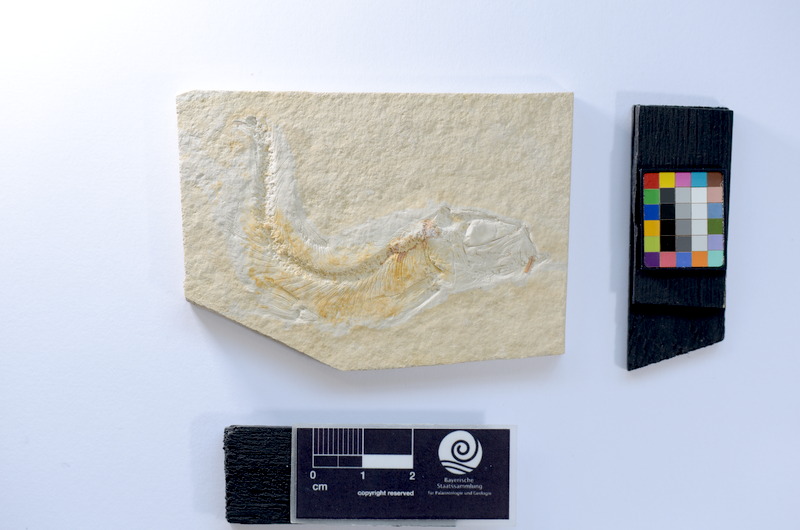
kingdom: Animalia
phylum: Chordata
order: Salmoniformes
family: Orthogonikleithridae
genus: Leptolepides
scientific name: Leptolepides
